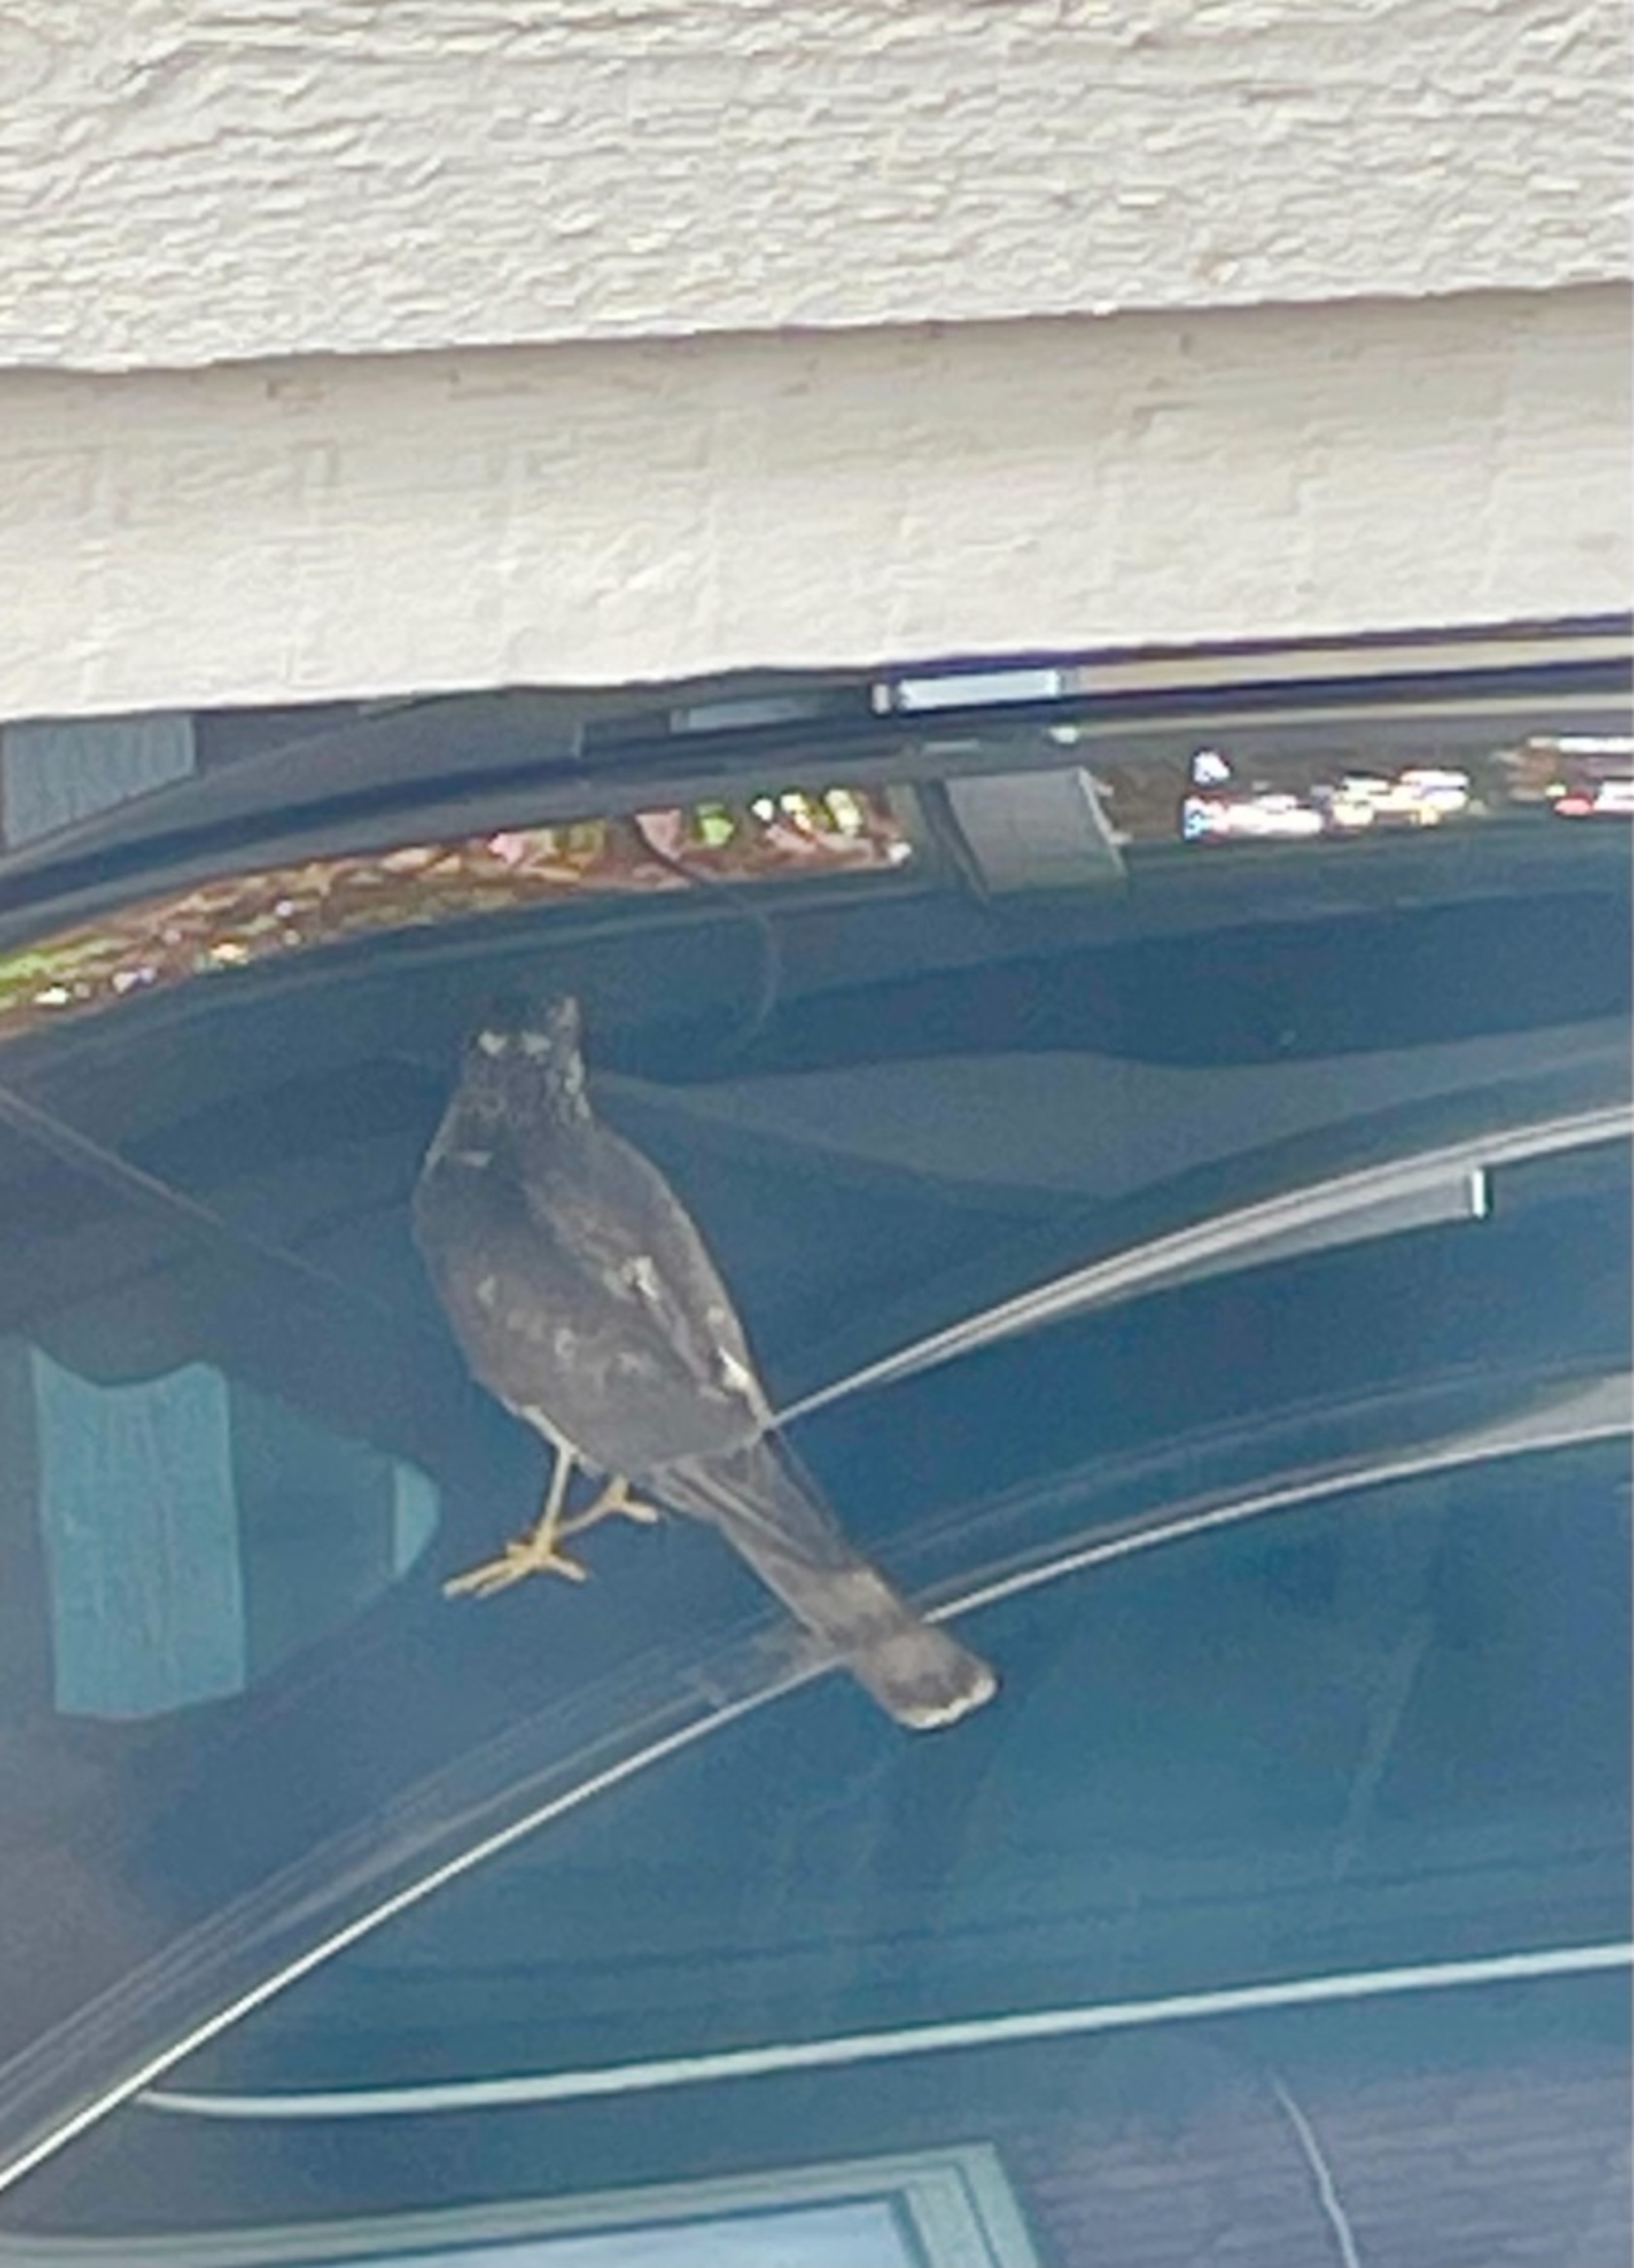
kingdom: Animalia
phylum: Chordata
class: Aves
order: Accipitriformes
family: Accipitridae
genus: Accipiter
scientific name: Accipiter nisus
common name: Spurvehøg
